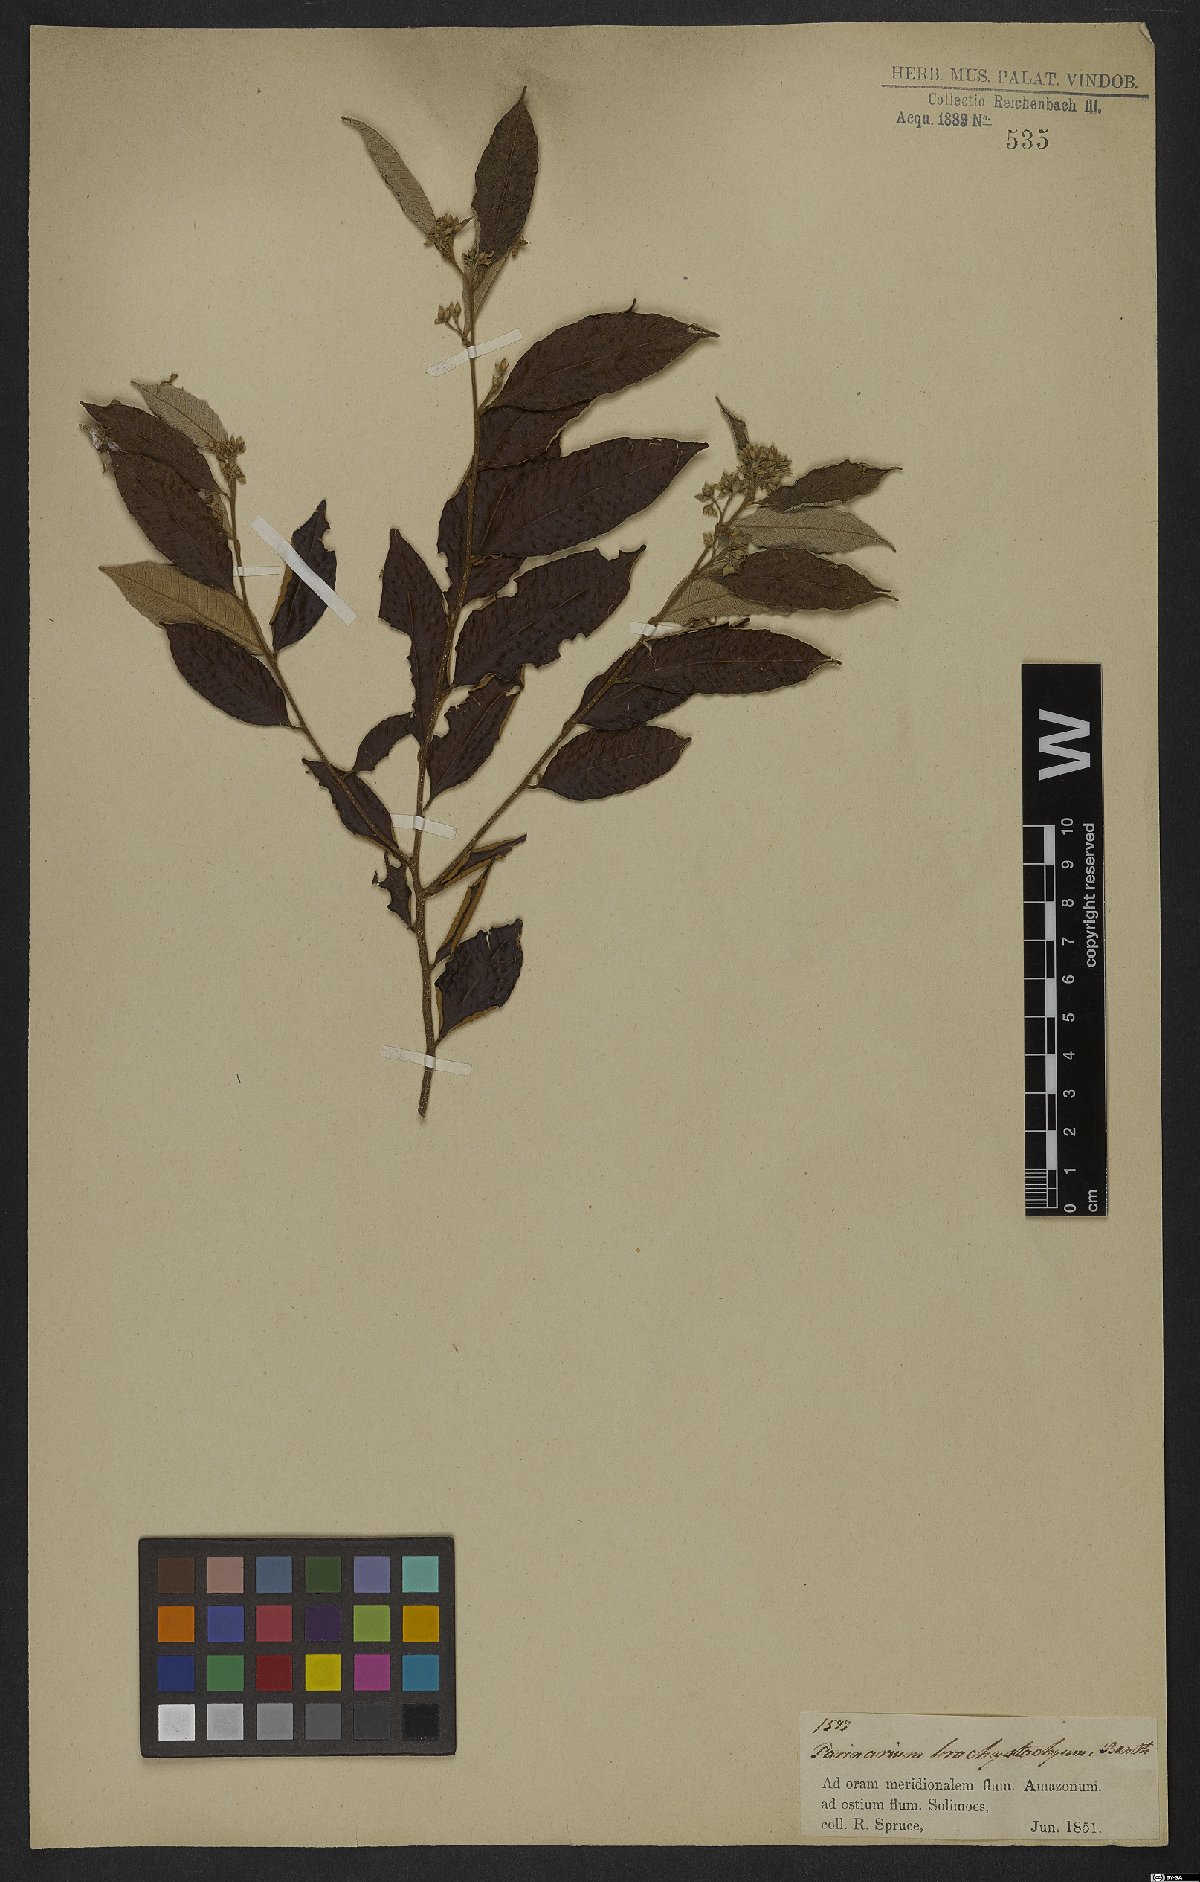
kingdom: Plantae
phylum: Tracheophyta
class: Magnoliopsida
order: Malpighiales
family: Chrysobalanaceae
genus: Parinari
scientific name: Parinari excelsa
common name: Guinea-plum
